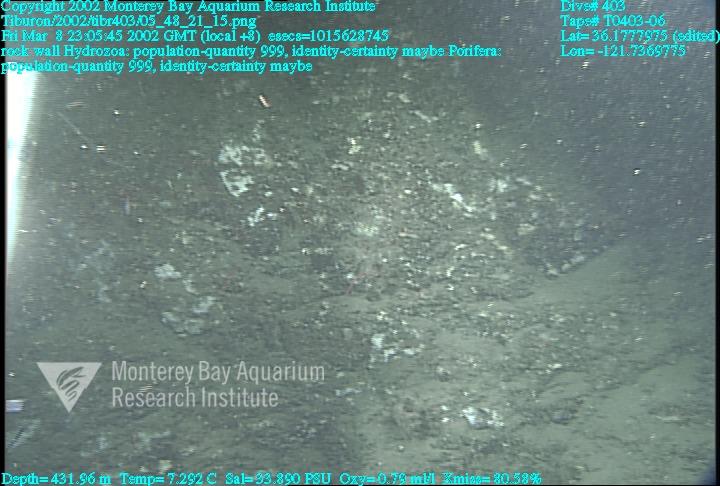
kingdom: Animalia
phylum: Porifera
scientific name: Porifera
